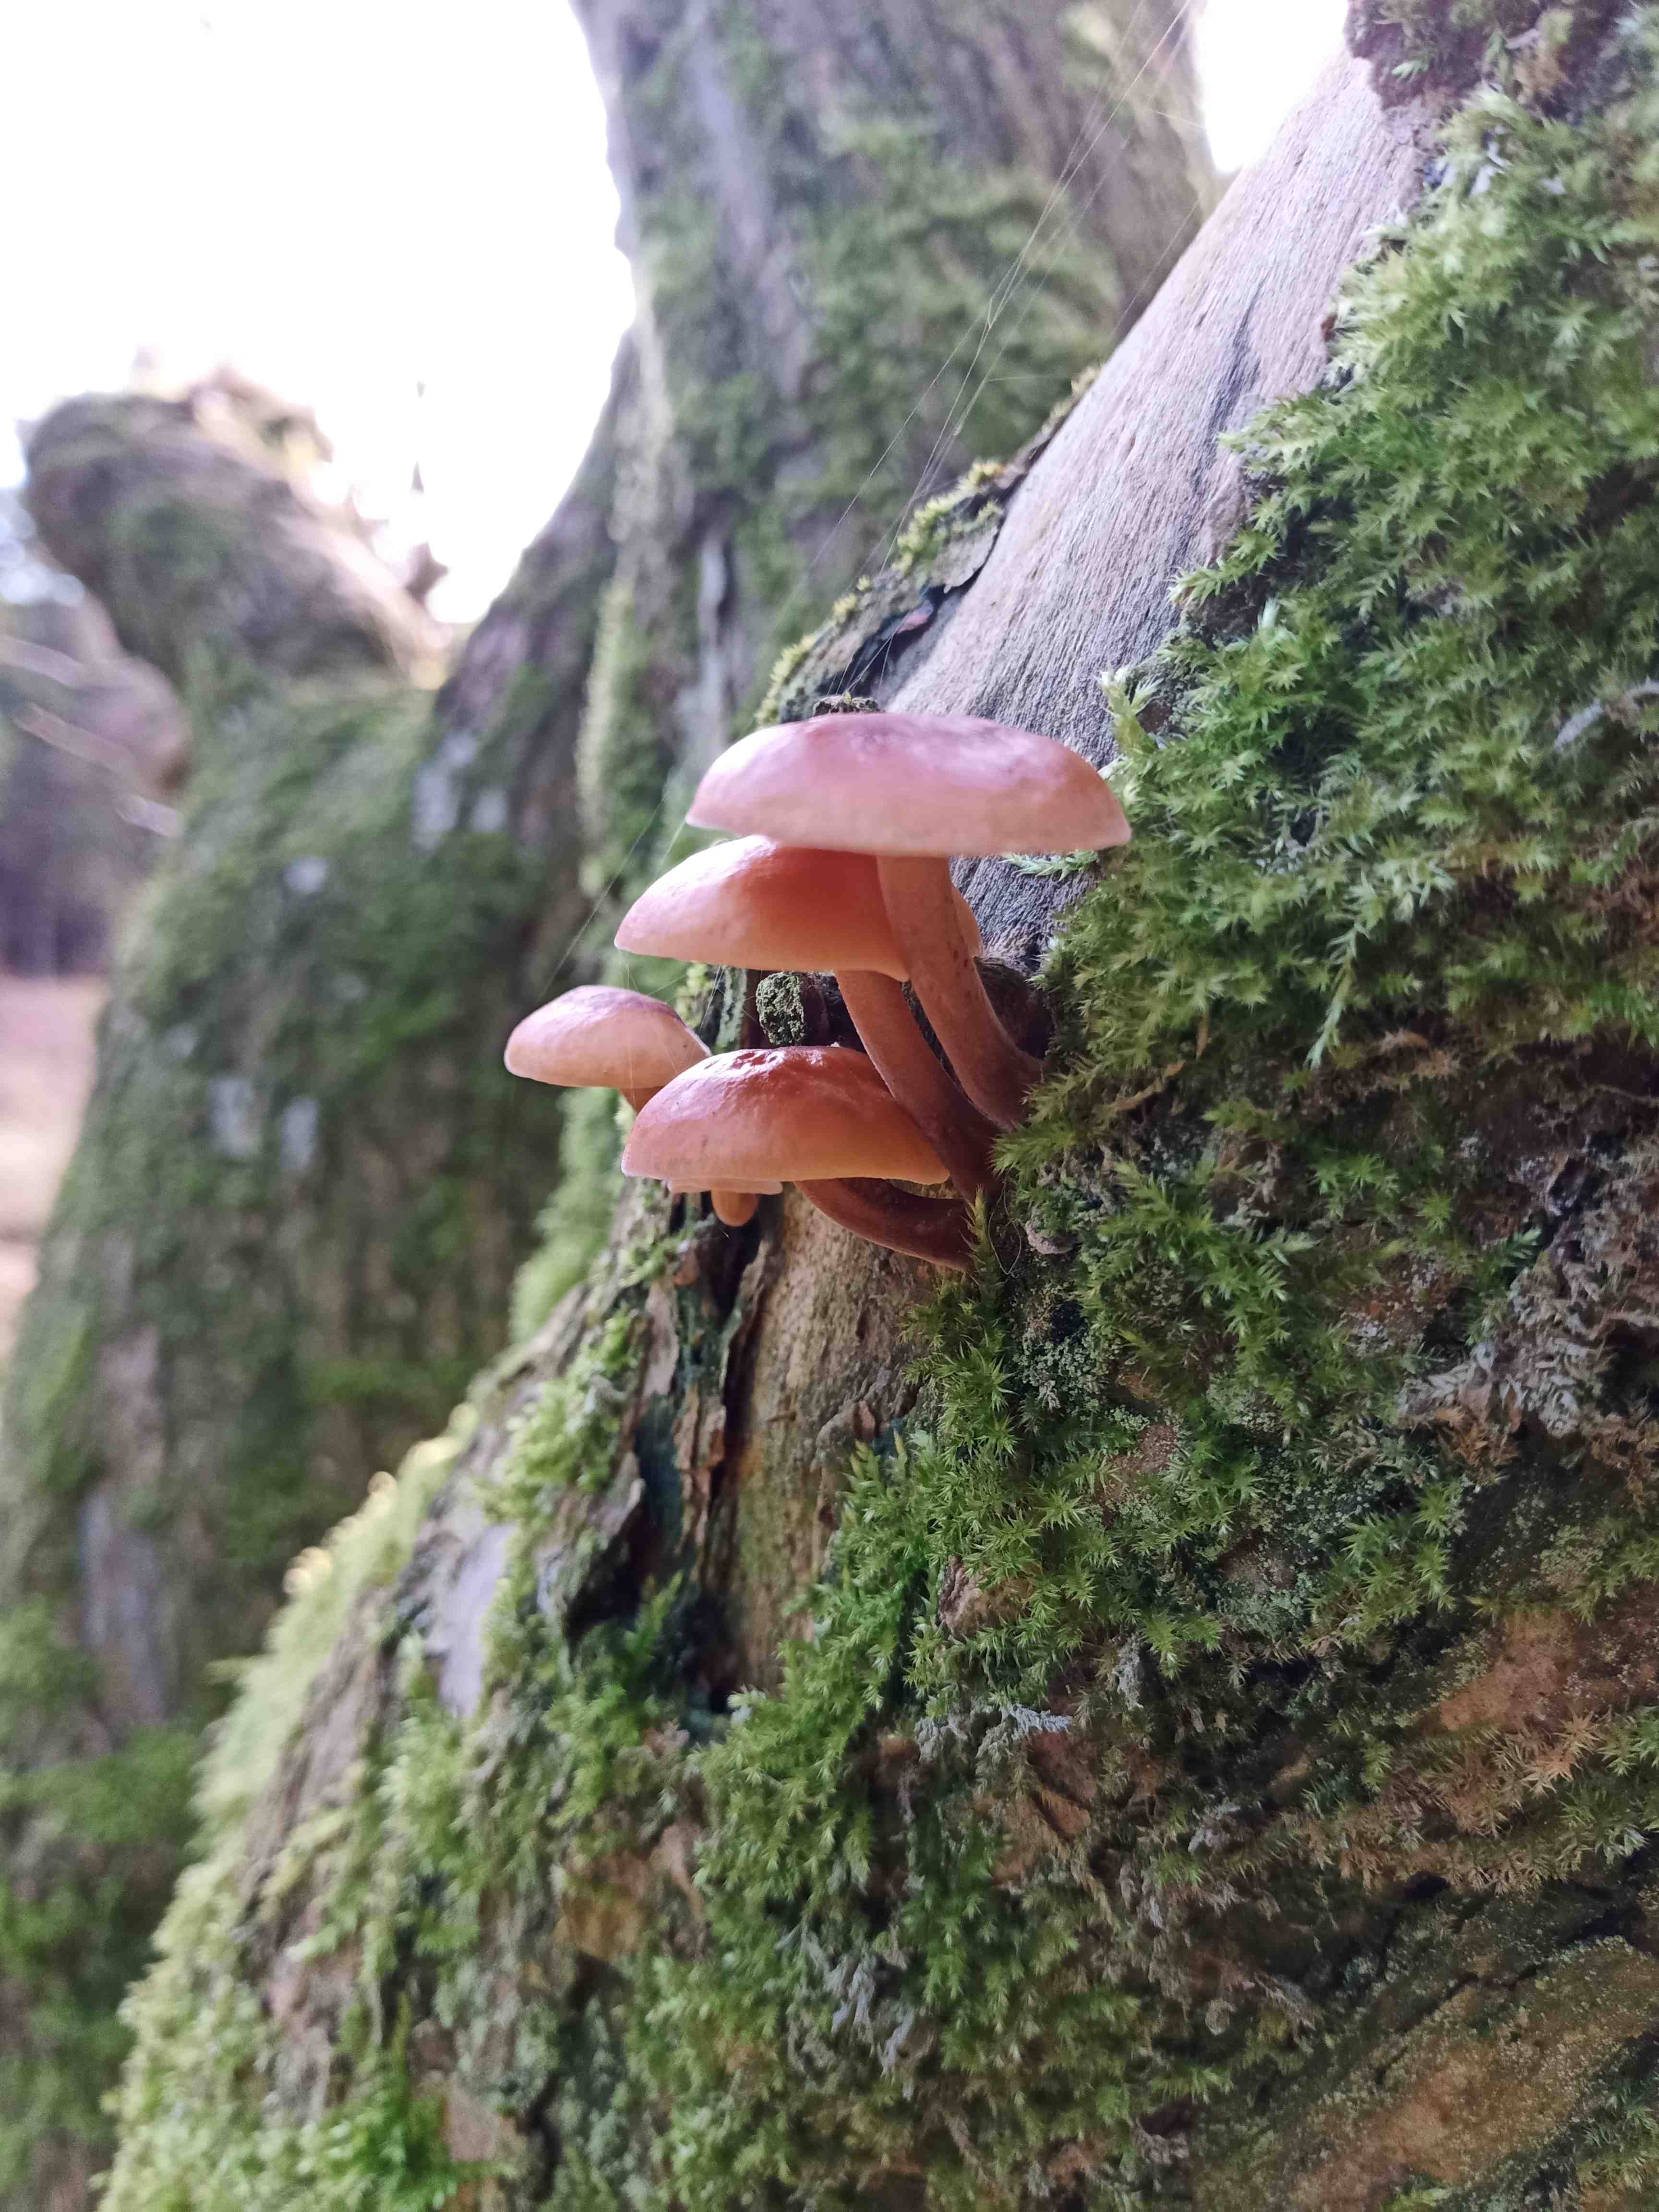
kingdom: Fungi
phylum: Basidiomycota
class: Agaricomycetes
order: Agaricales
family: Physalacriaceae
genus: Flammulina
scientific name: Flammulina velutipes
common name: gul fløjlsfod
